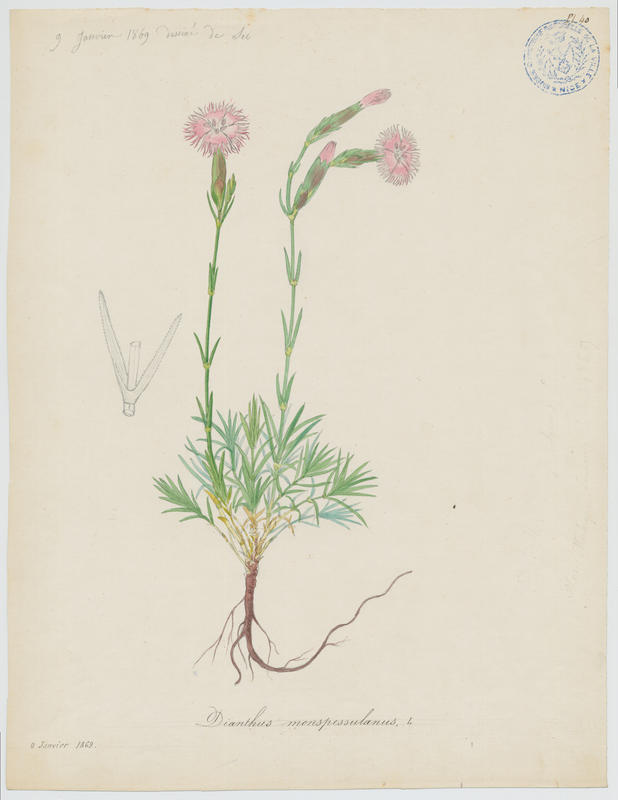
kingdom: Plantae
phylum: Tracheophyta
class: Magnoliopsida
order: Caryophyllales
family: Caryophyllaceae
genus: Dianthus
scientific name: Dianthus hyssopifolius
